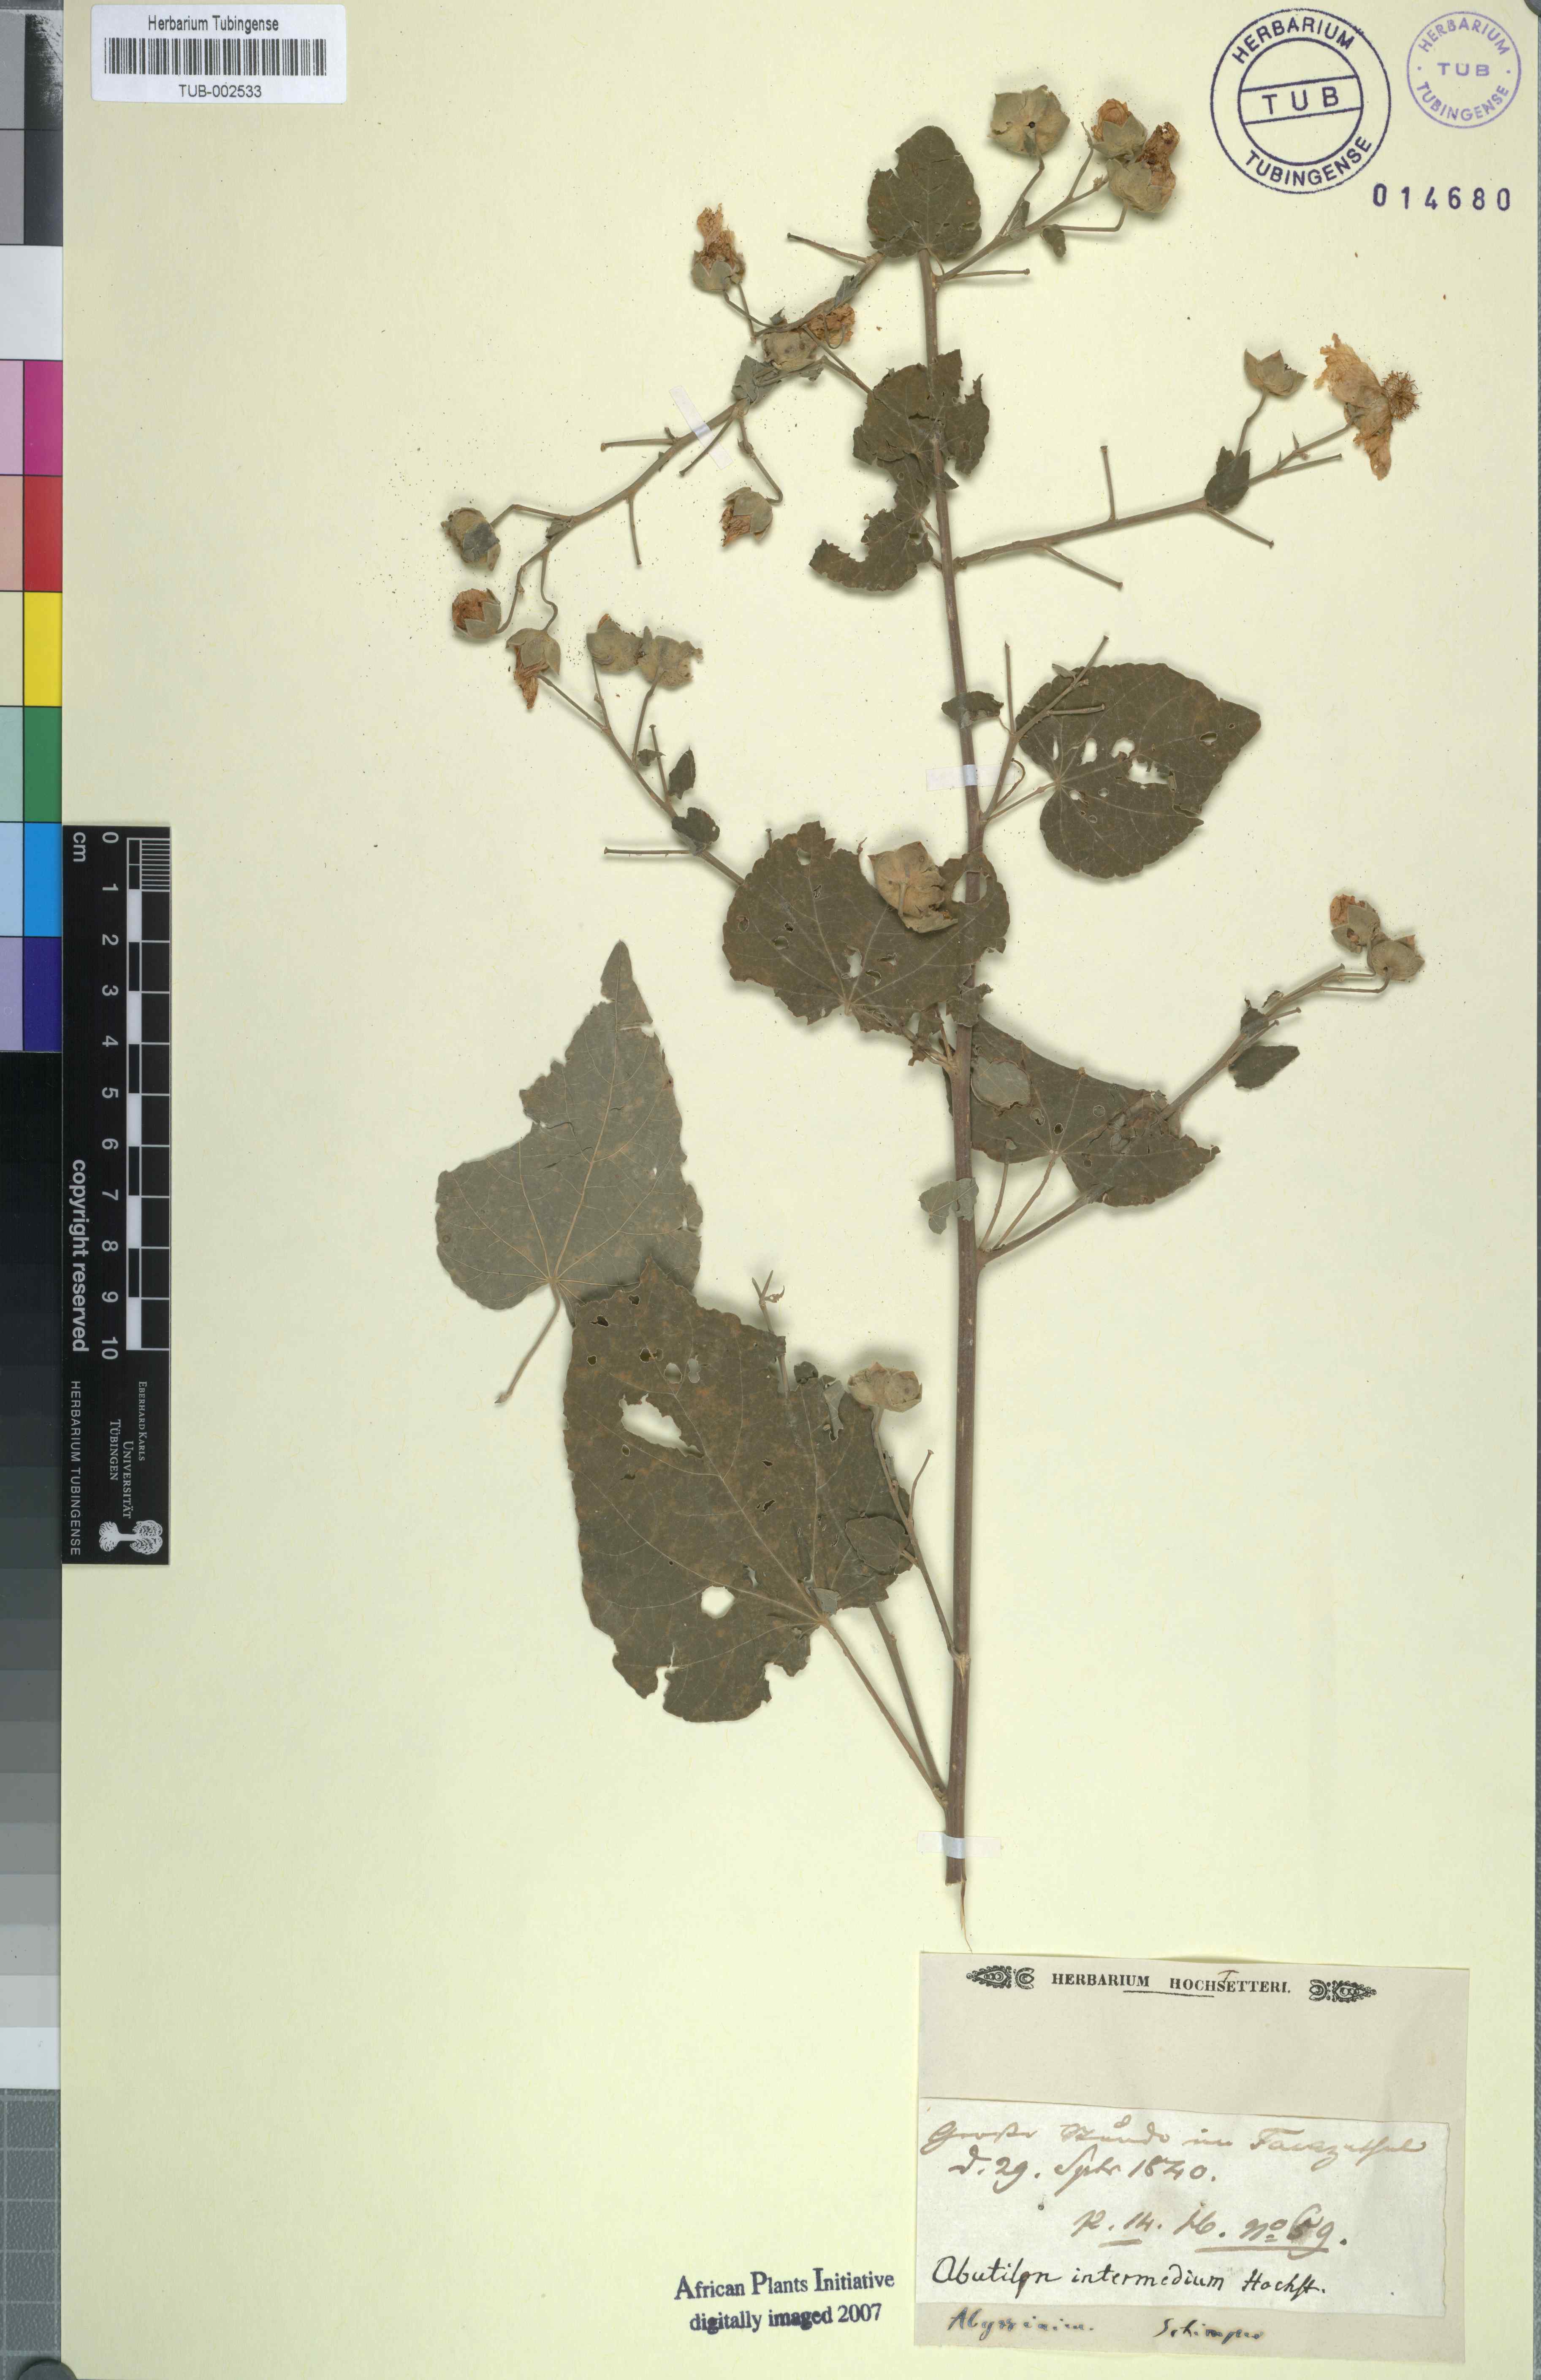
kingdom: Plantae
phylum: Tracheophyta
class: Magnoliopsida
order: Malvales
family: Malvaceae
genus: Abutilon
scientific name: Abutilon angulatum
